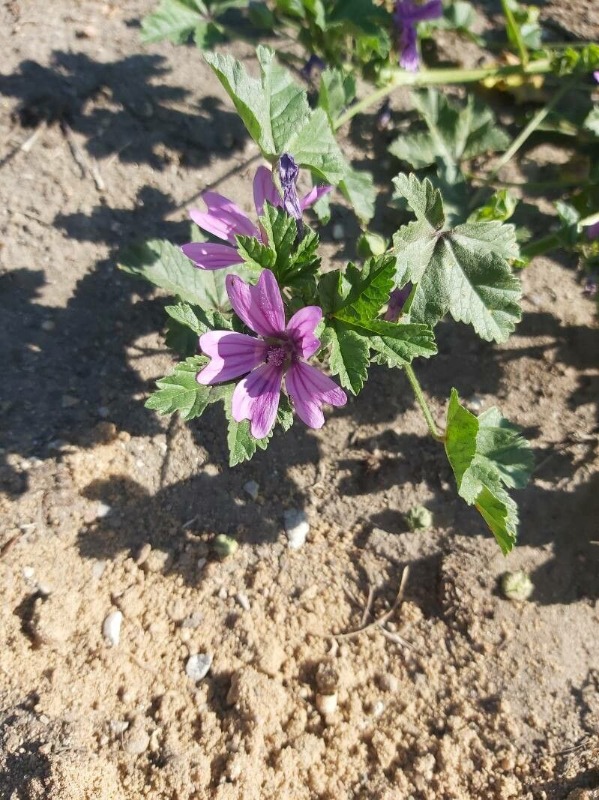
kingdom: Plantae
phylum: Tracheophyta
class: Magnoliopsida
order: Malvales
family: Malvaceae
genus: Malva
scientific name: Malva sylvestris
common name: Almindelig katost
